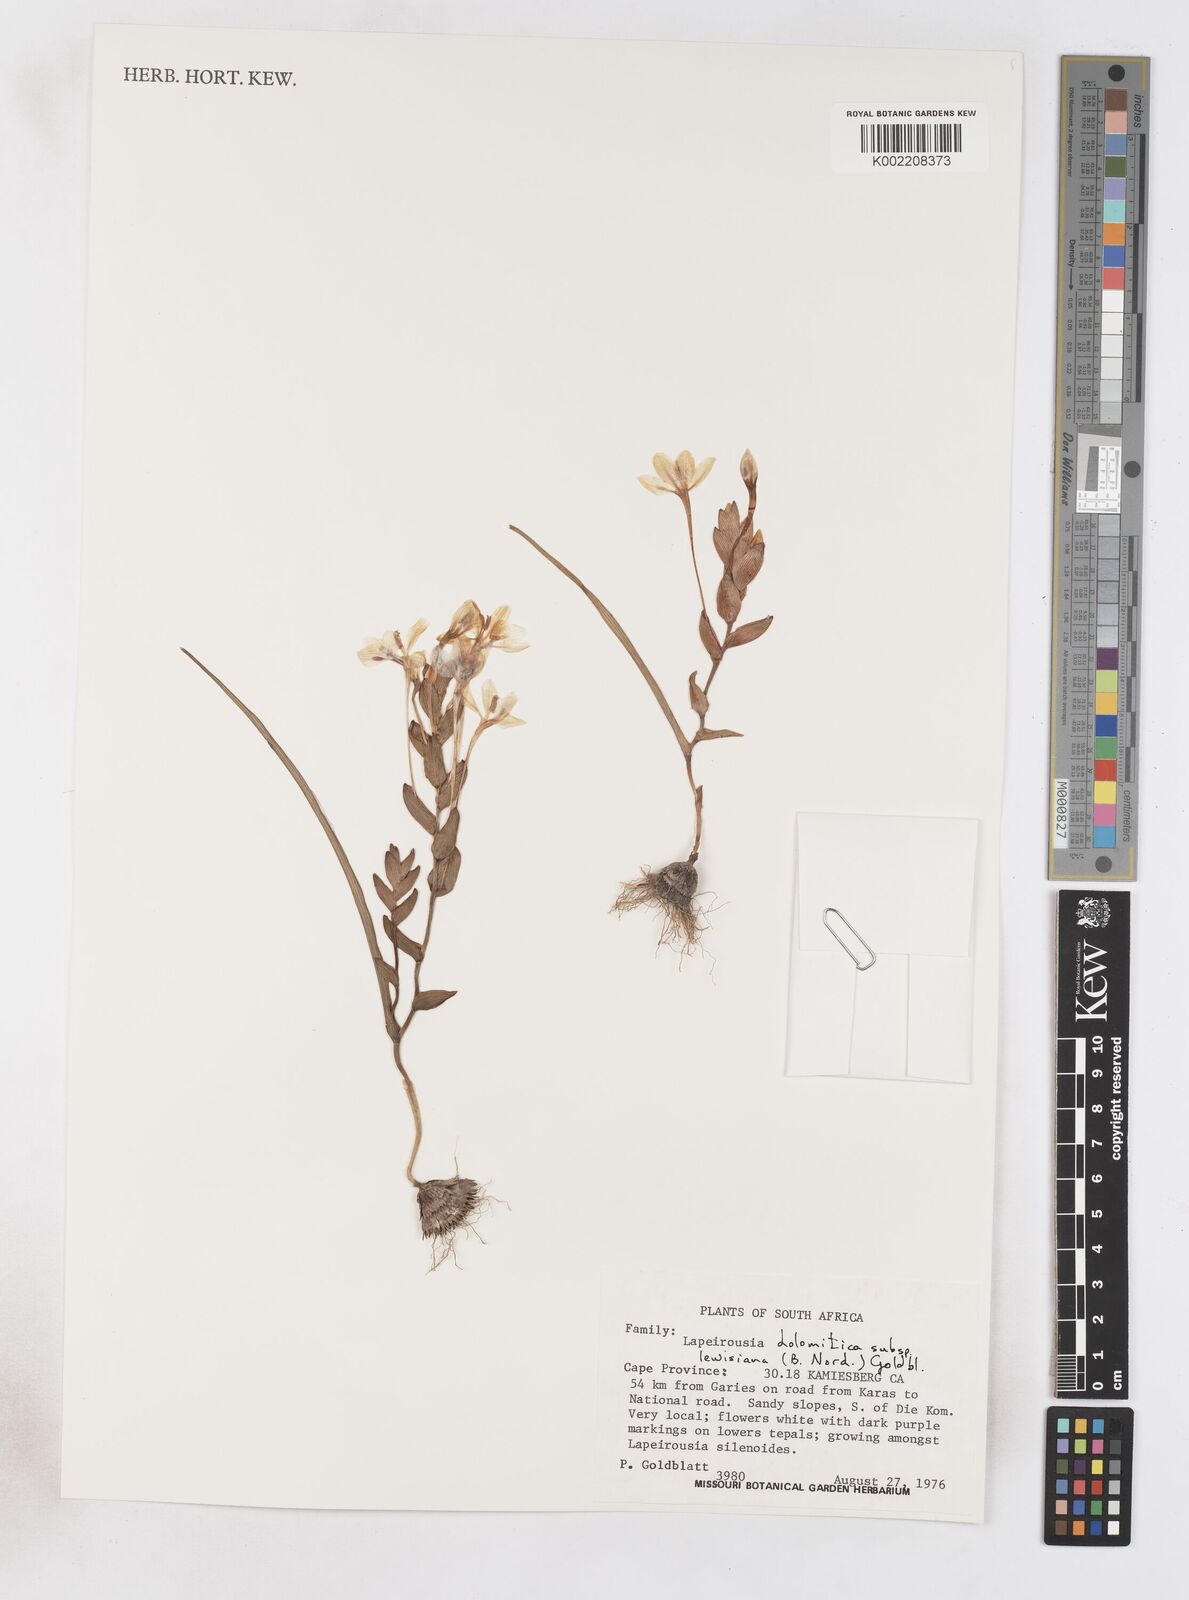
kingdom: Plantae
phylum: Tracheophyta
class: Liliopsida
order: Asparagales
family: Iridaceae
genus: Lapeirousia
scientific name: Lapeirousia lewisiana
